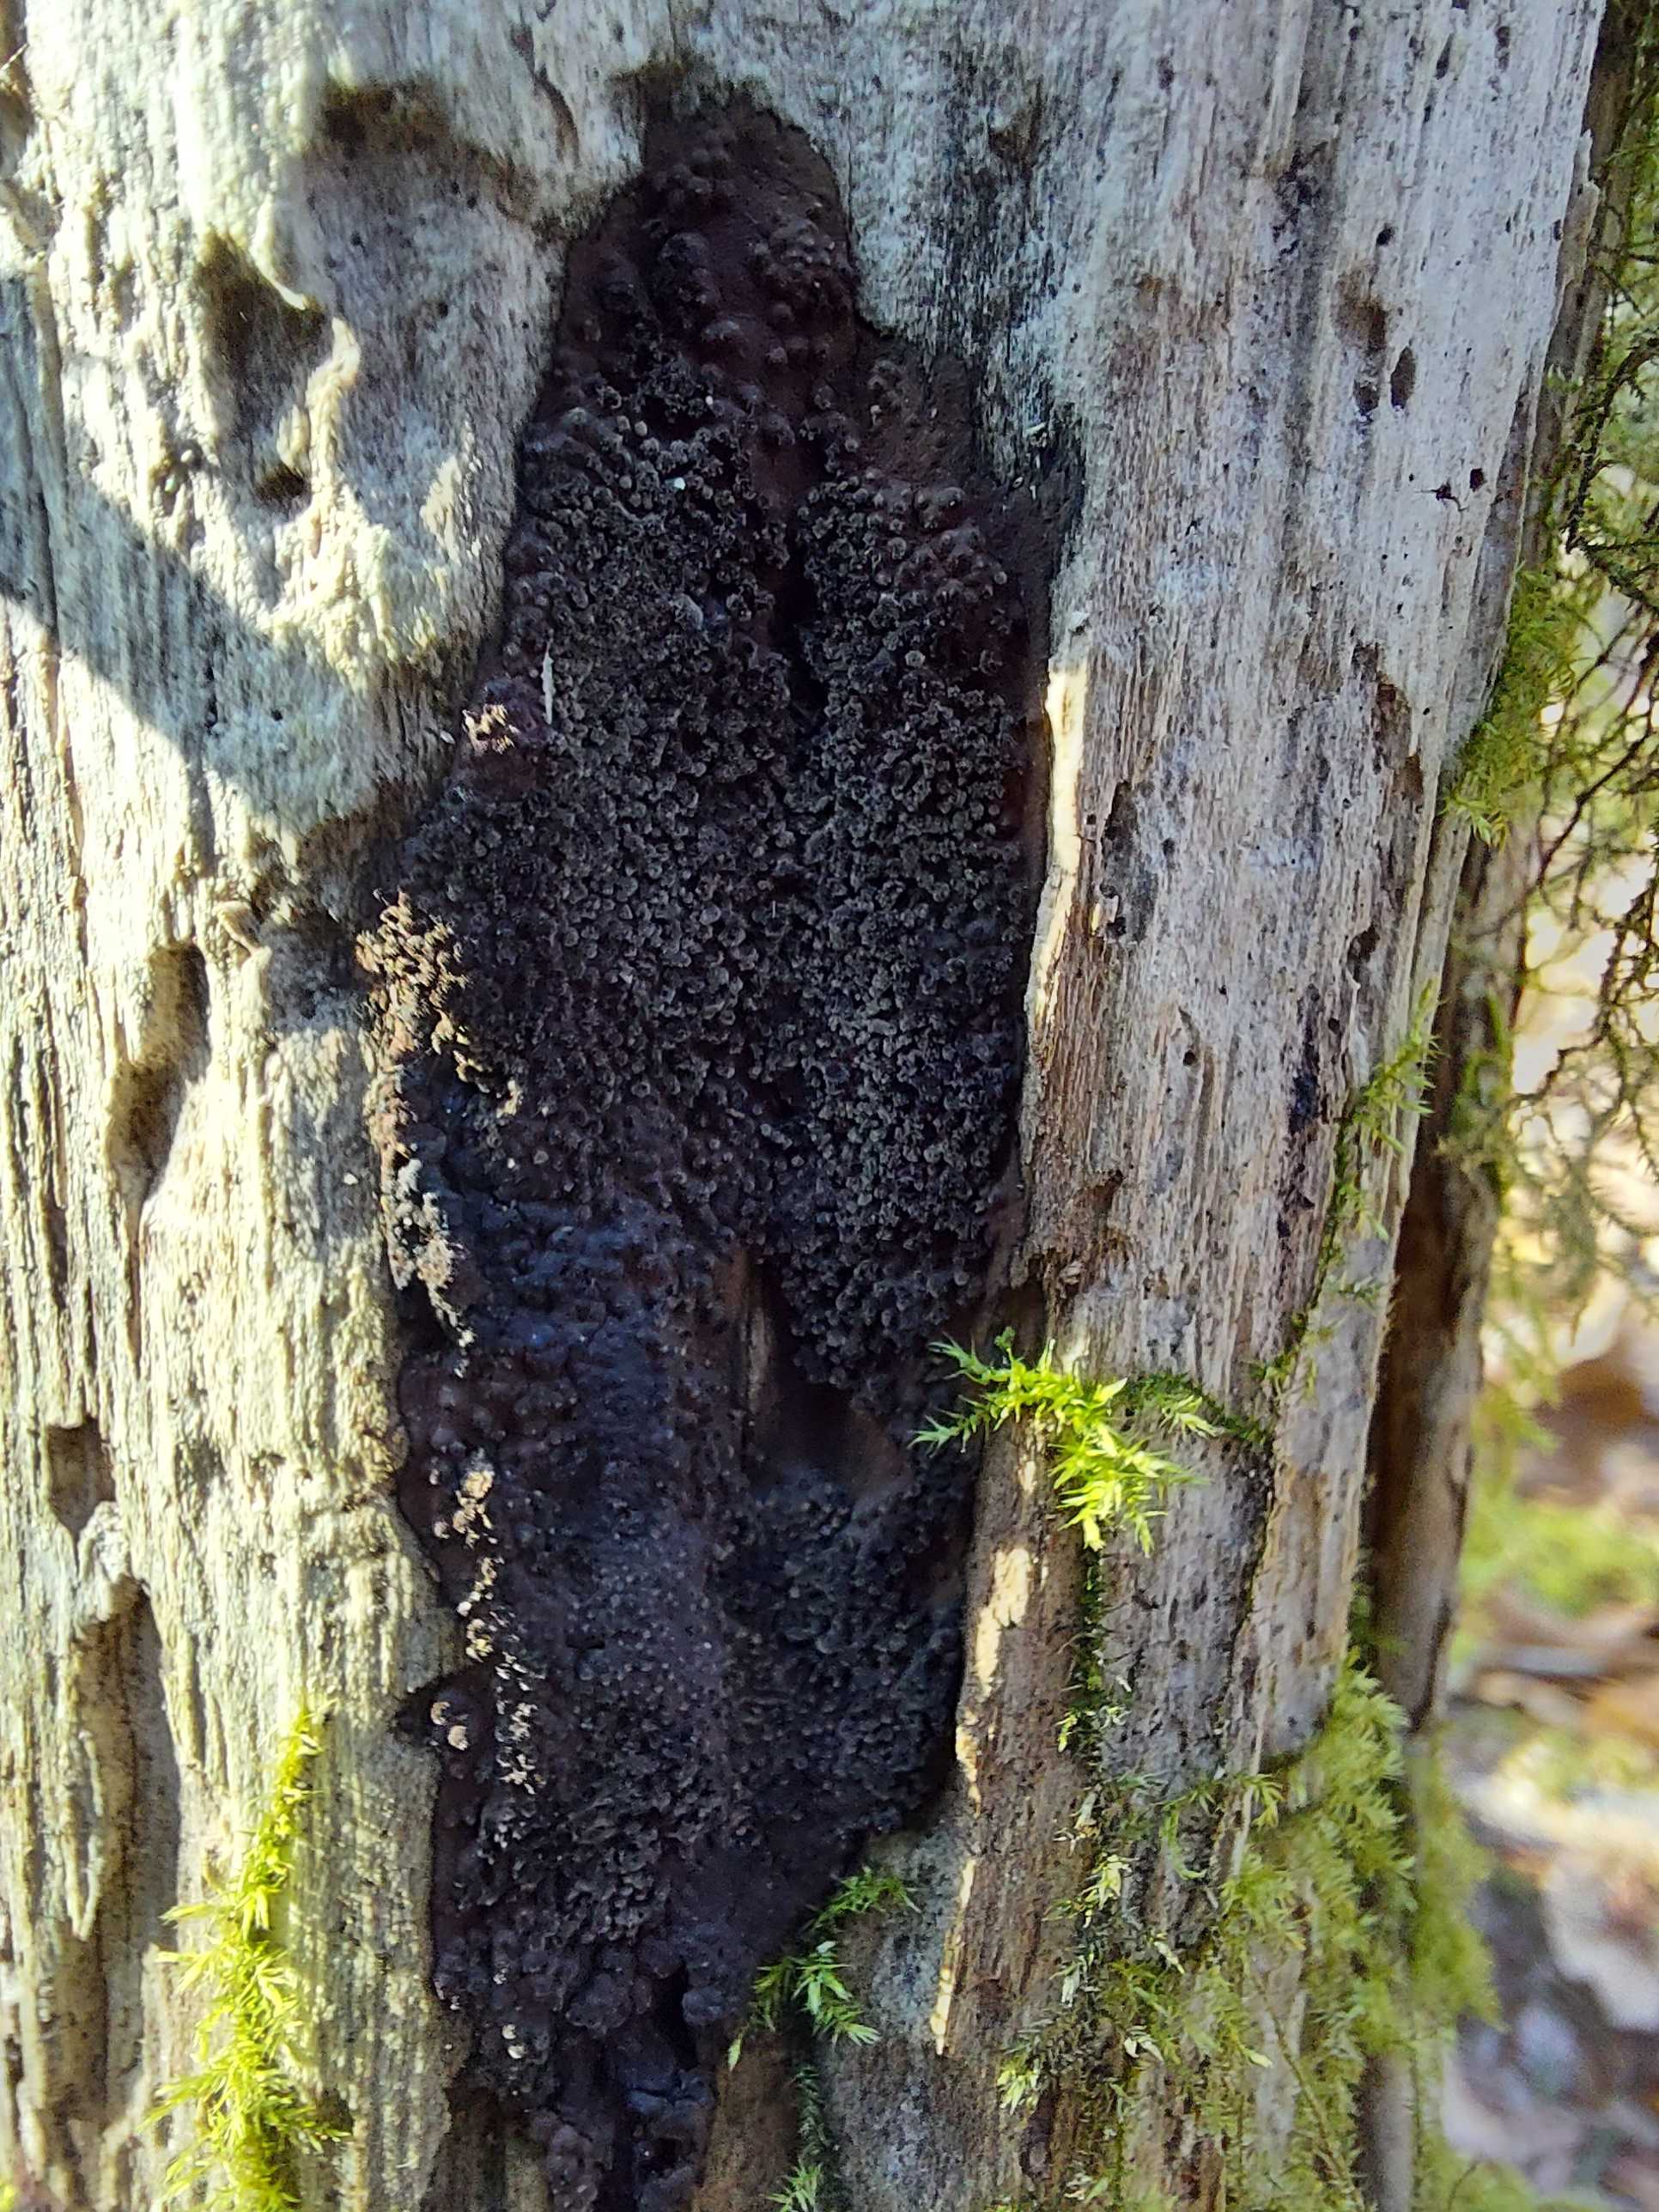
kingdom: Fungi
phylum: Ascomycota
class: Sordariomycetes
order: Xylariales
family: Hypoxylaceae
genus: Hypoxylon
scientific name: Hypoxylon
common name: kulbær
